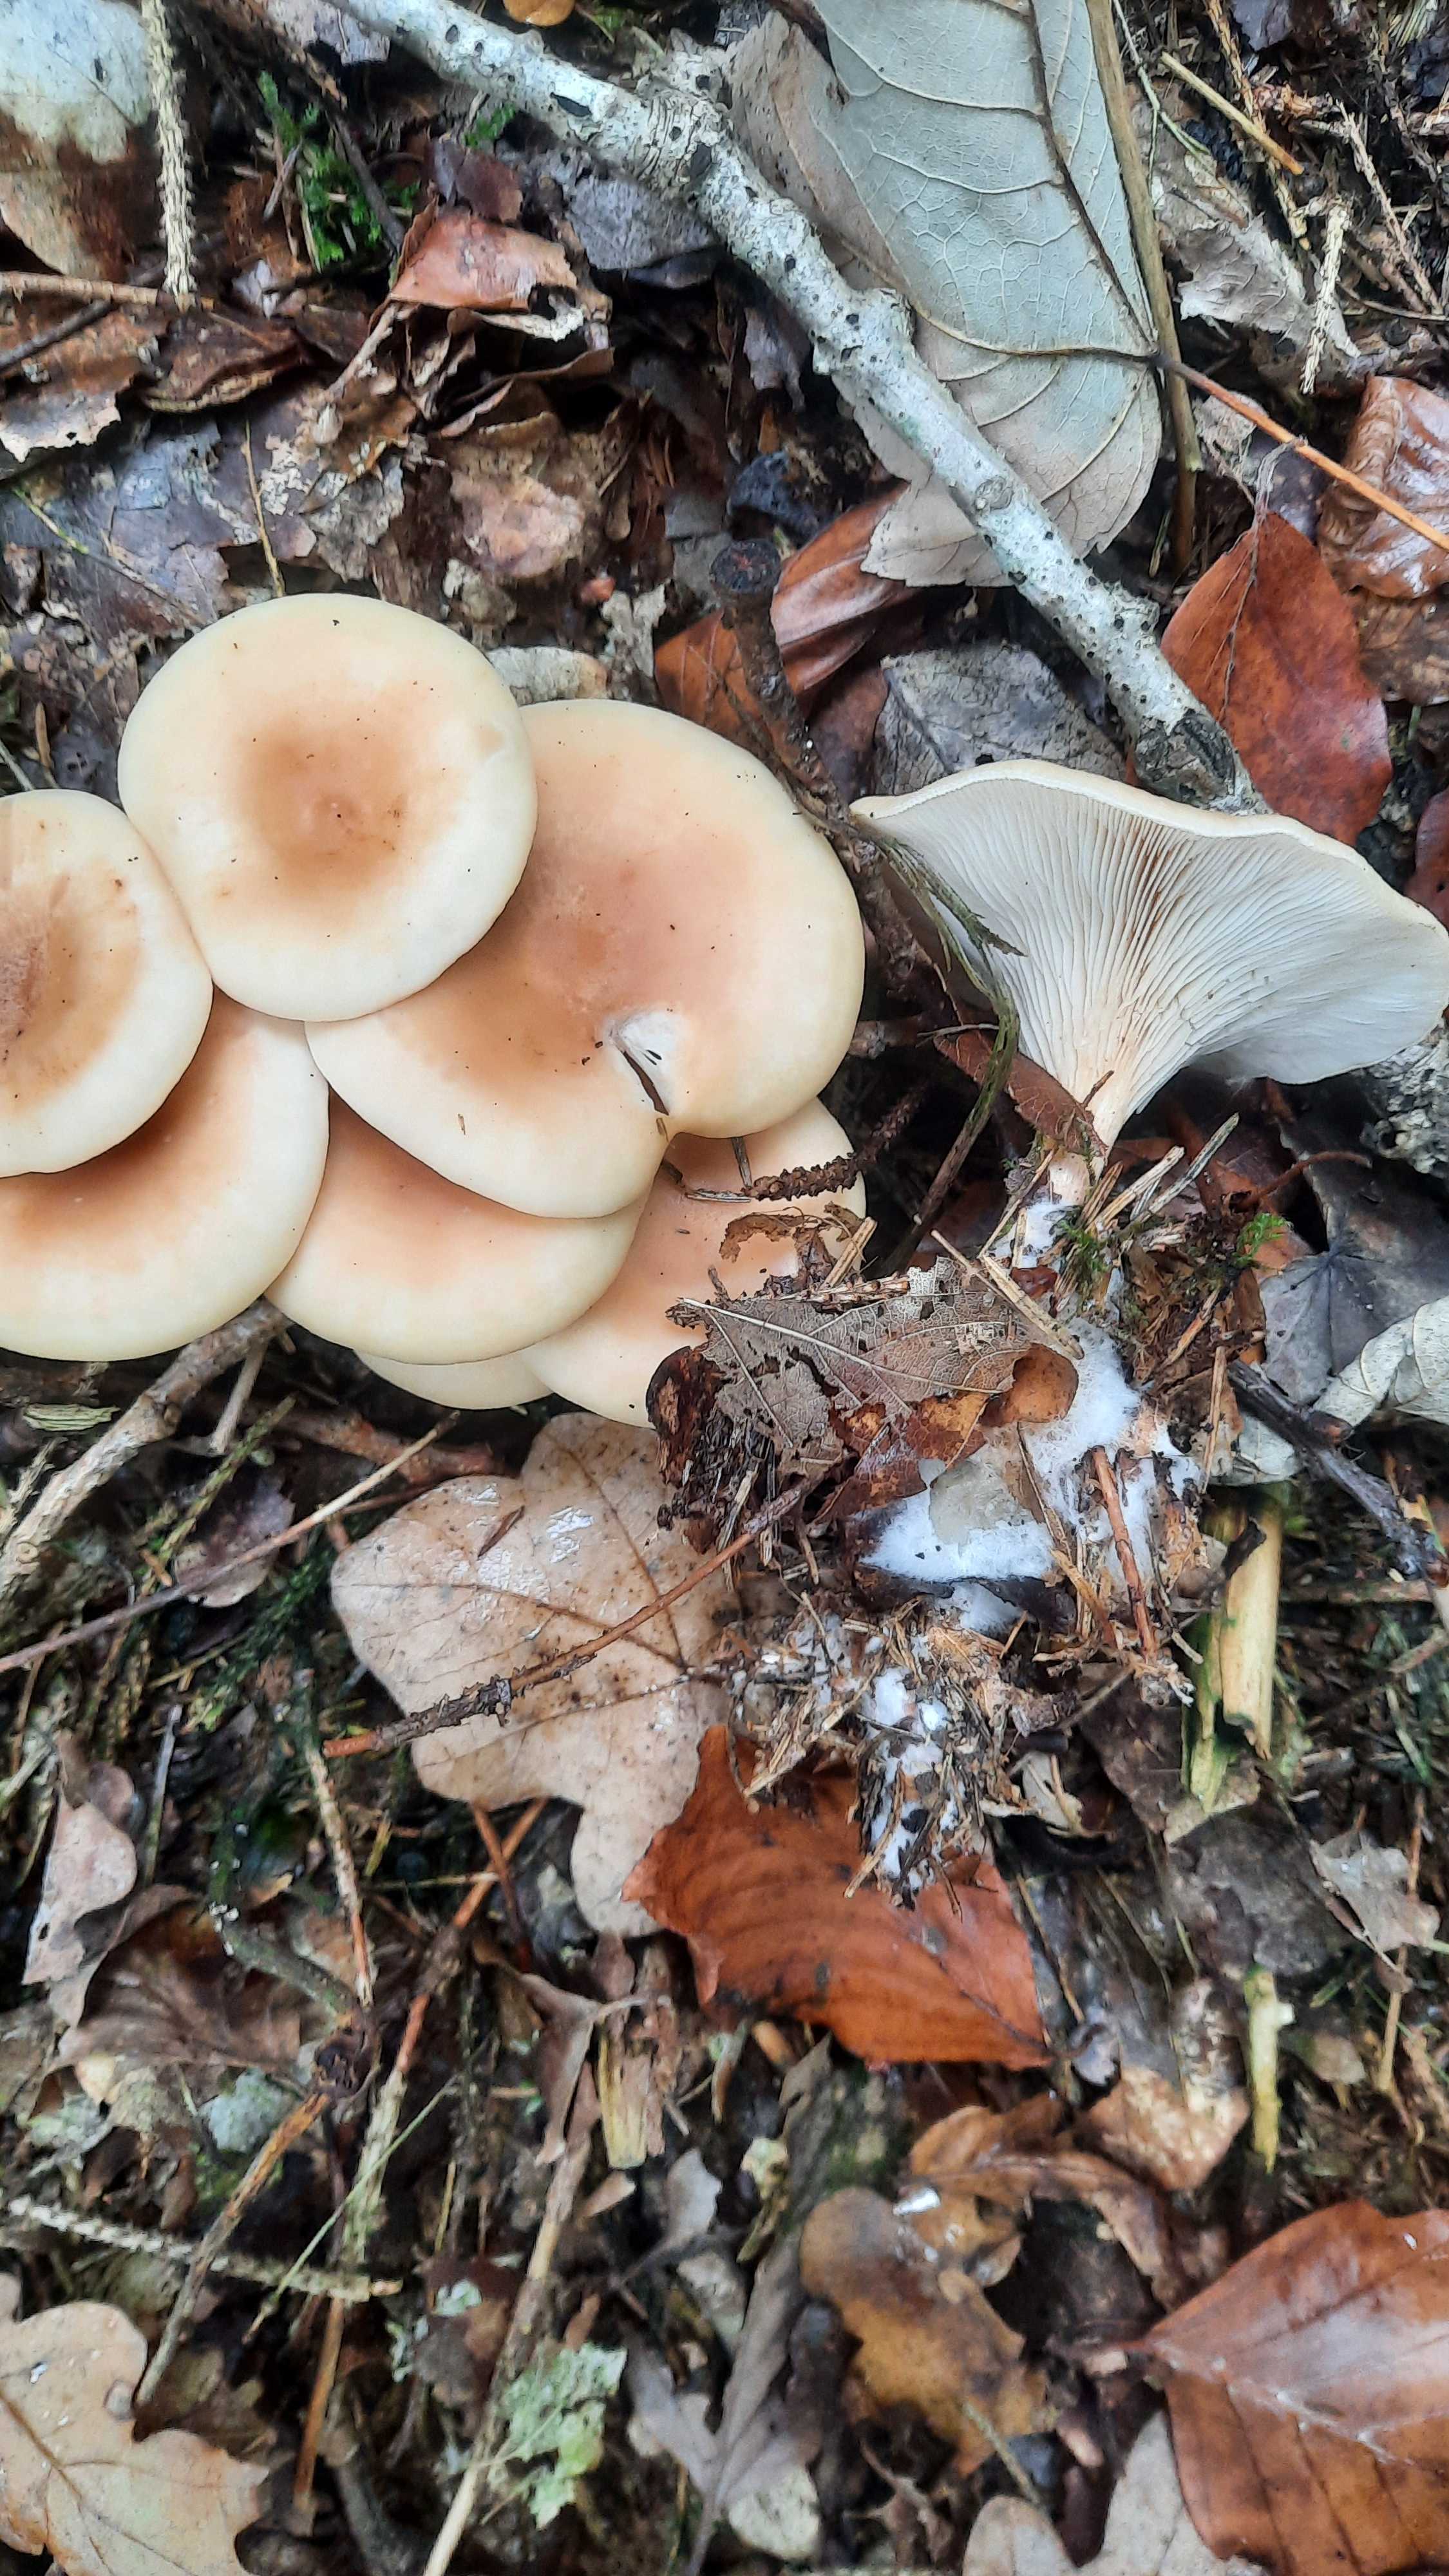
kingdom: Fungi
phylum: Basidiomycota
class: Agaricomycetes
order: Agaricales
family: Tricholomataceae
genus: Paralepista
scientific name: Paralepista flaccida
